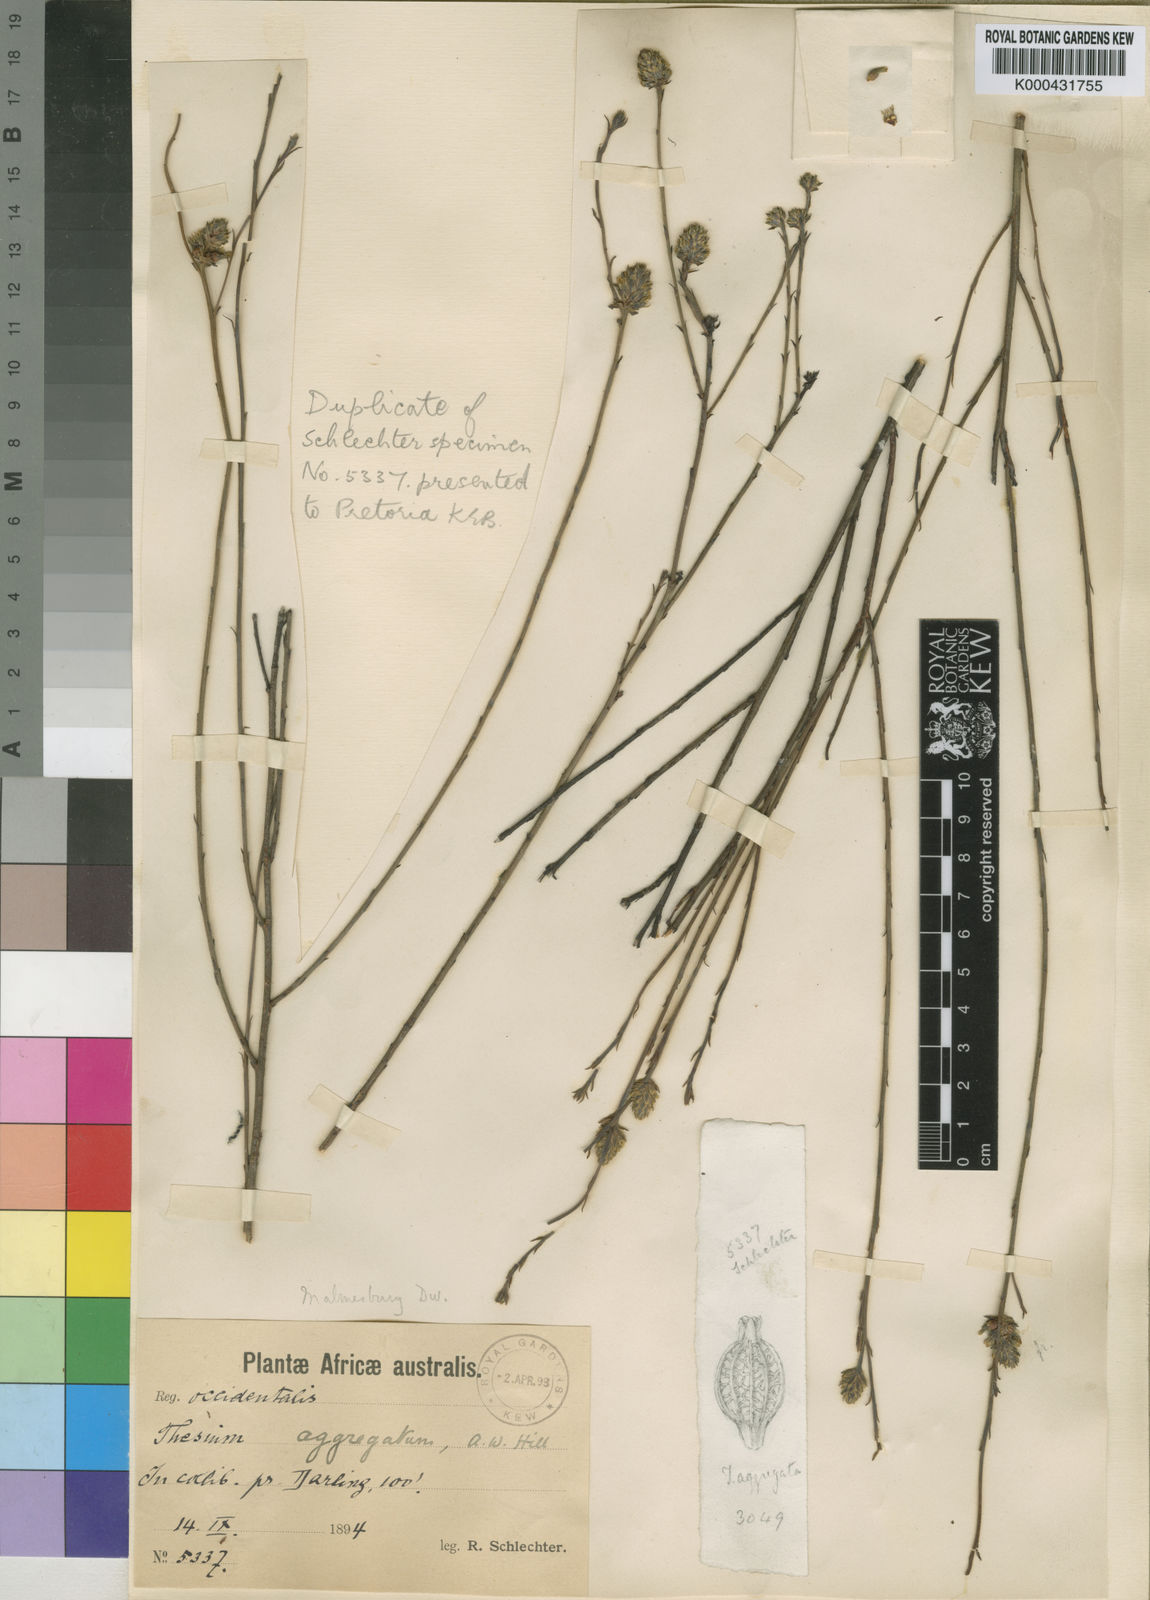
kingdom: Plantae
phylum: Tracheophyta
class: Magnoliopsida
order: Santalales
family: Thesiaceae
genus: Thesium
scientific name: Thesium aggregatum
